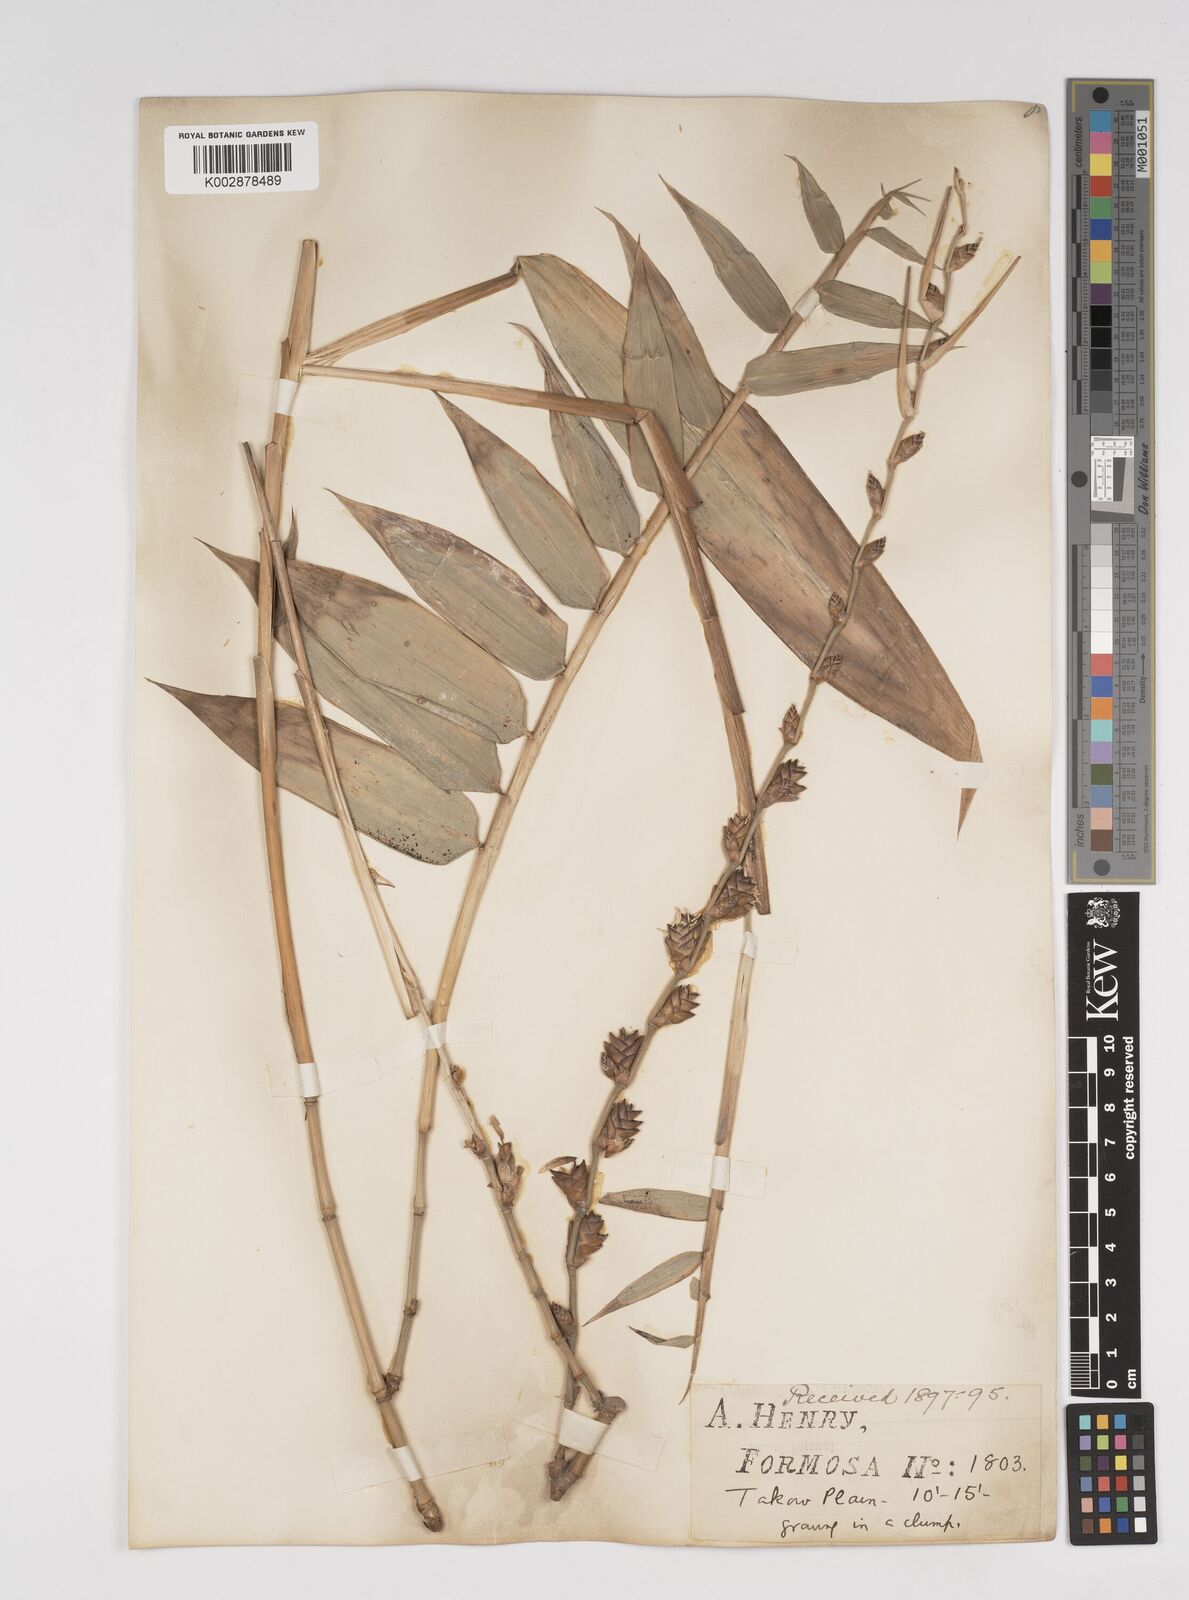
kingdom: Plantae
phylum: Tracheophyta
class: Liliopsida
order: Poales
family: Poaceae
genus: Dendrocalamus
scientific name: Dendrocalamus latiflorus
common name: Giant bamboo
